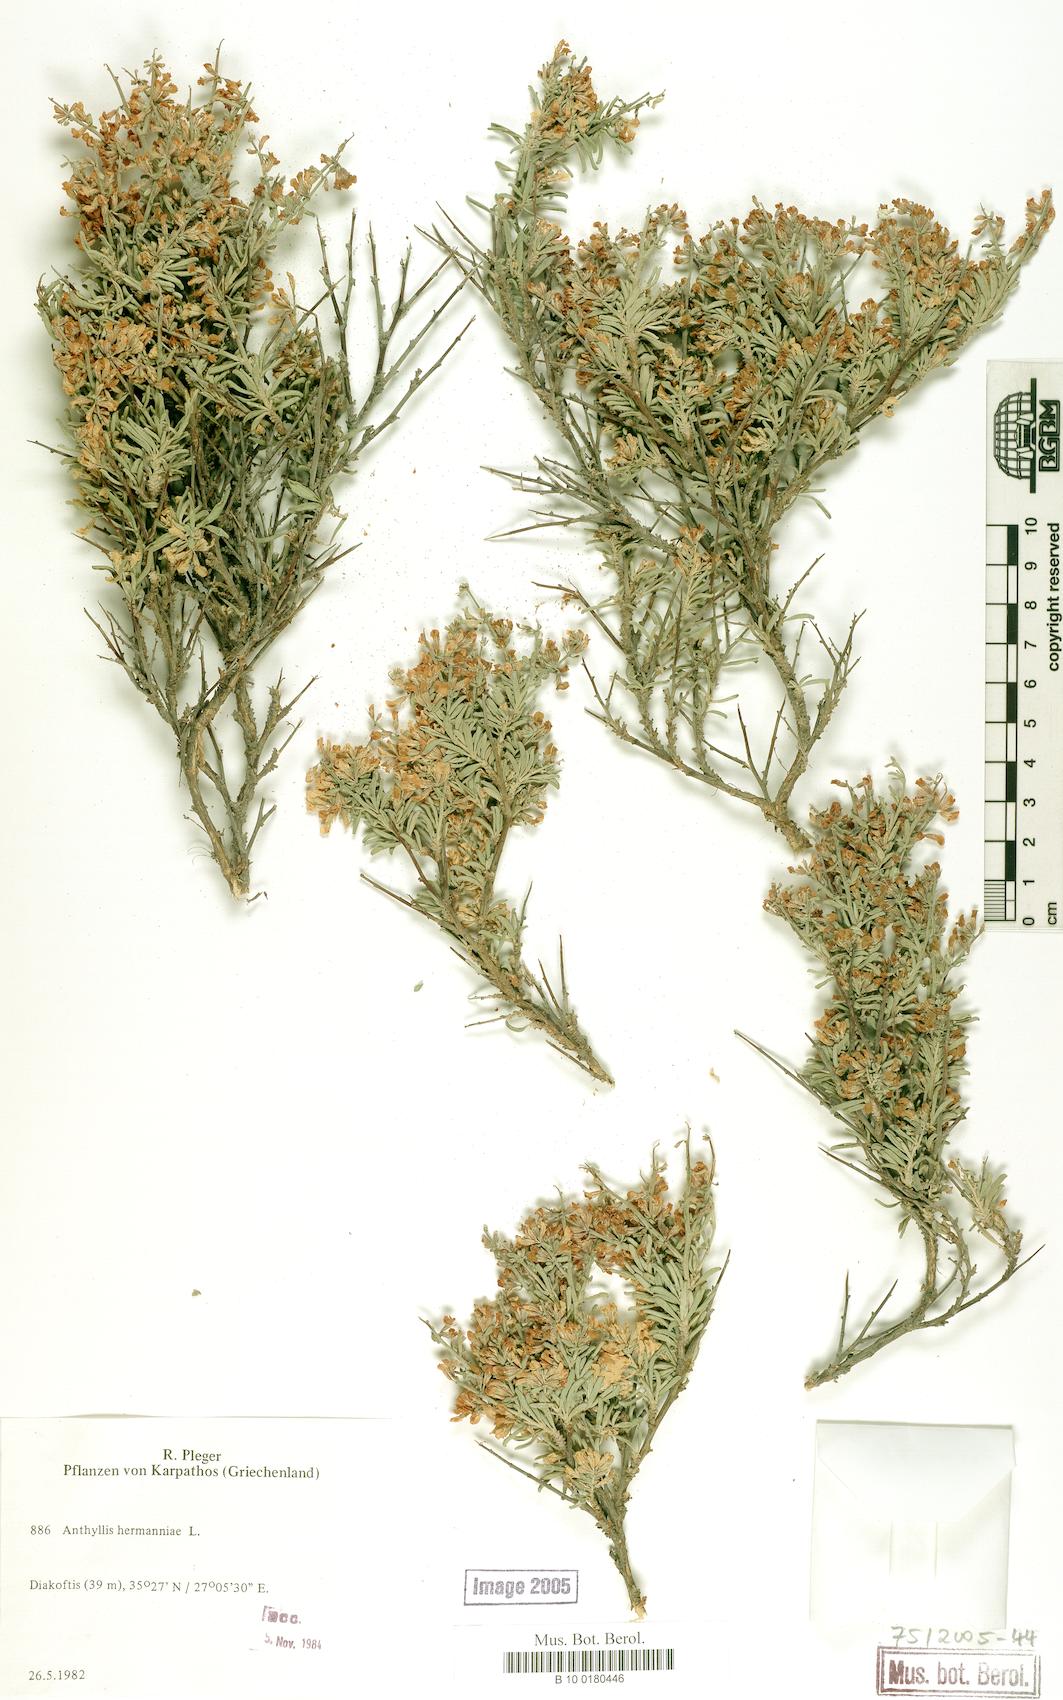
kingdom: Plantae
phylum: Tracheophyta
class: Magnoliopsida
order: Fabales
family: Fabaceae
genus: Anthyllis
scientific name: Anthyllis hermanniae
